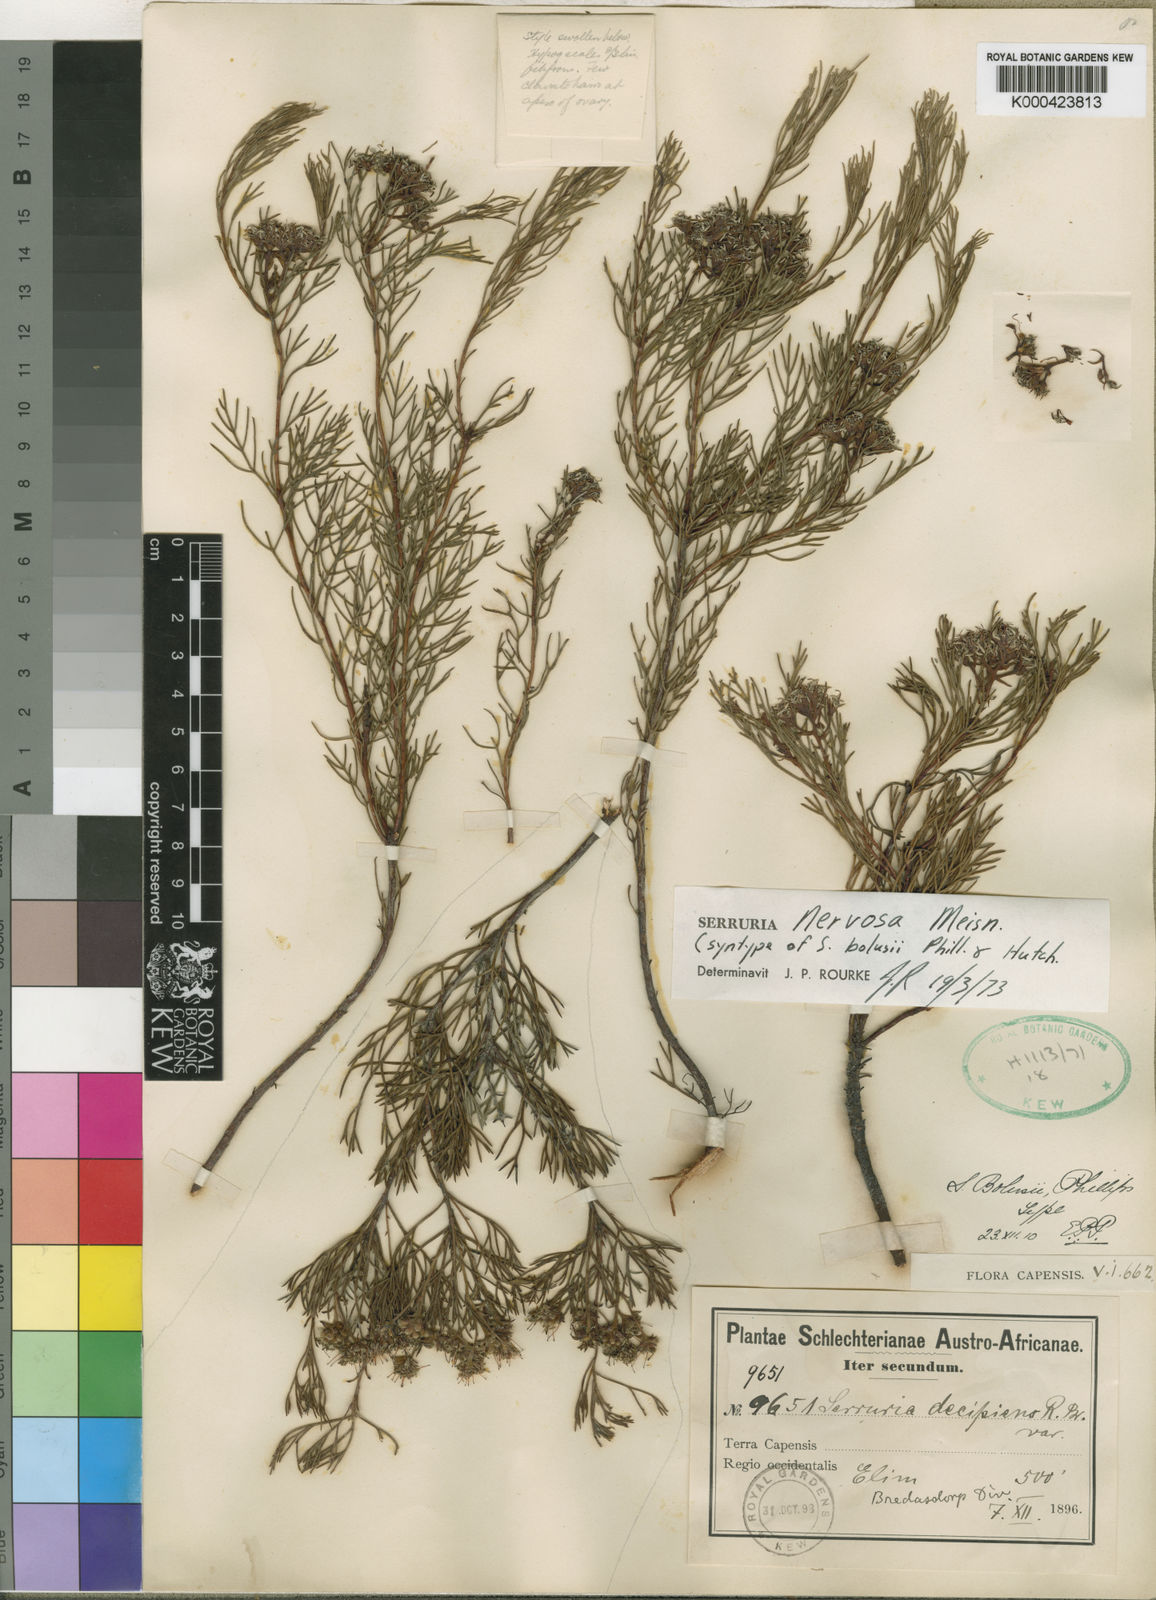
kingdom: Plantae
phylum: Tracheophyta
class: Magnoliopsida
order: Proteales
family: Proteaceae
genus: Serruria
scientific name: Serruria bolusii
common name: Agulhas spiderhead
